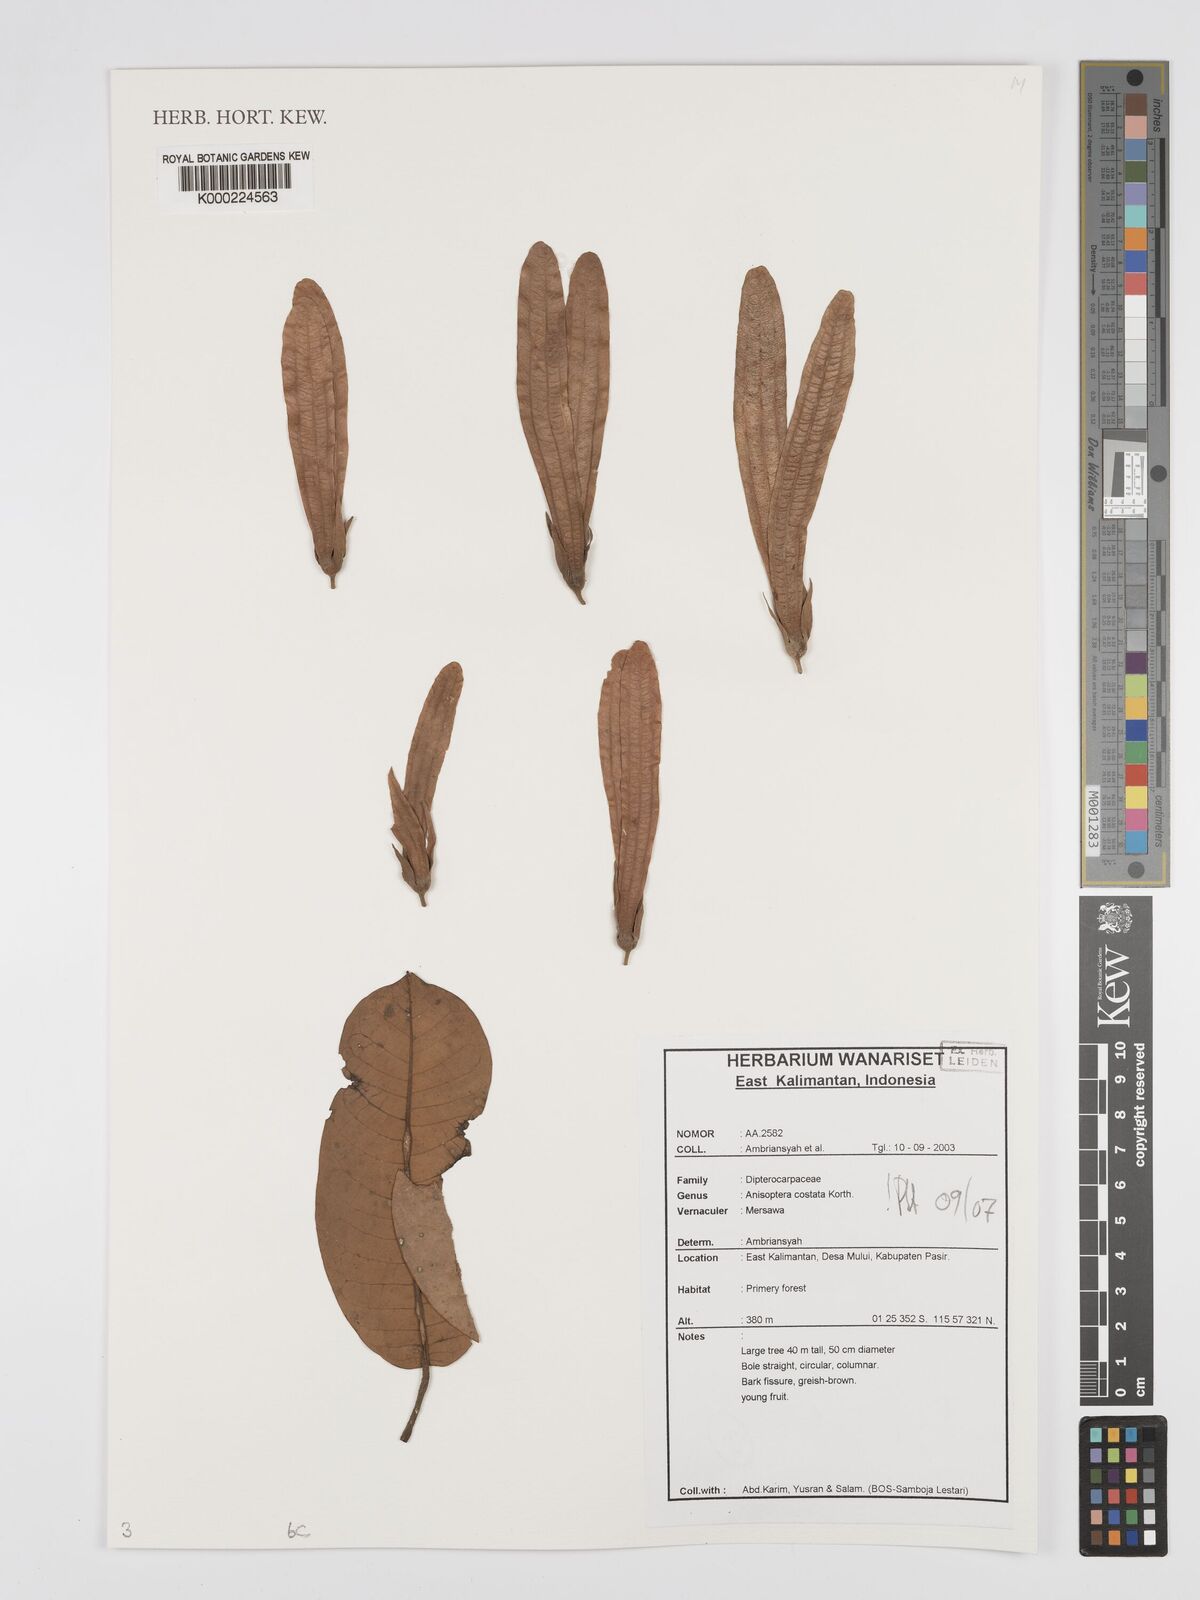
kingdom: Plantae
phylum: Tracheophyta
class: Magnoliopsida
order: Malvales
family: Dipterocarpaceae
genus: Anisoptera
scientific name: Anisoptera costata
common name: Mersawa
